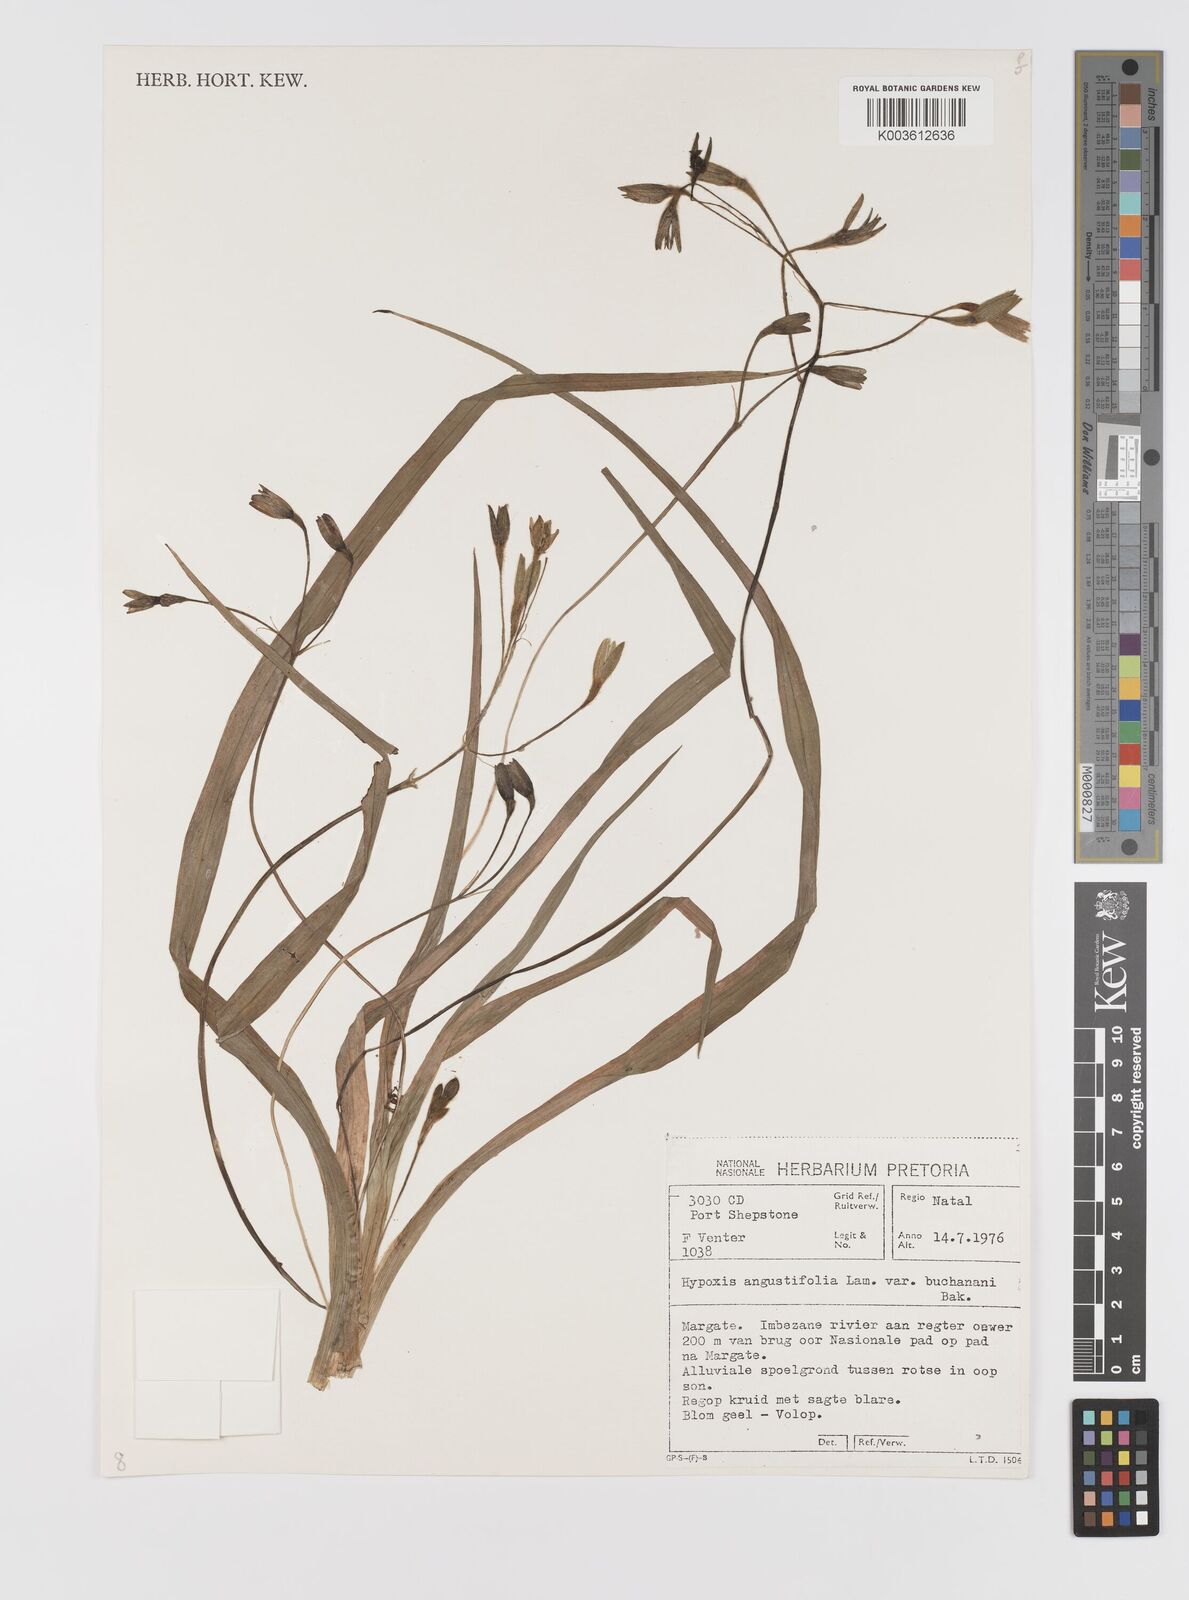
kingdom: Plantae
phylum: Tracheophyta
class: Liliopsida
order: Asparagales
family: Hypoxidaceae
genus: Hypoxis
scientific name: Hypoxis angustifolia
